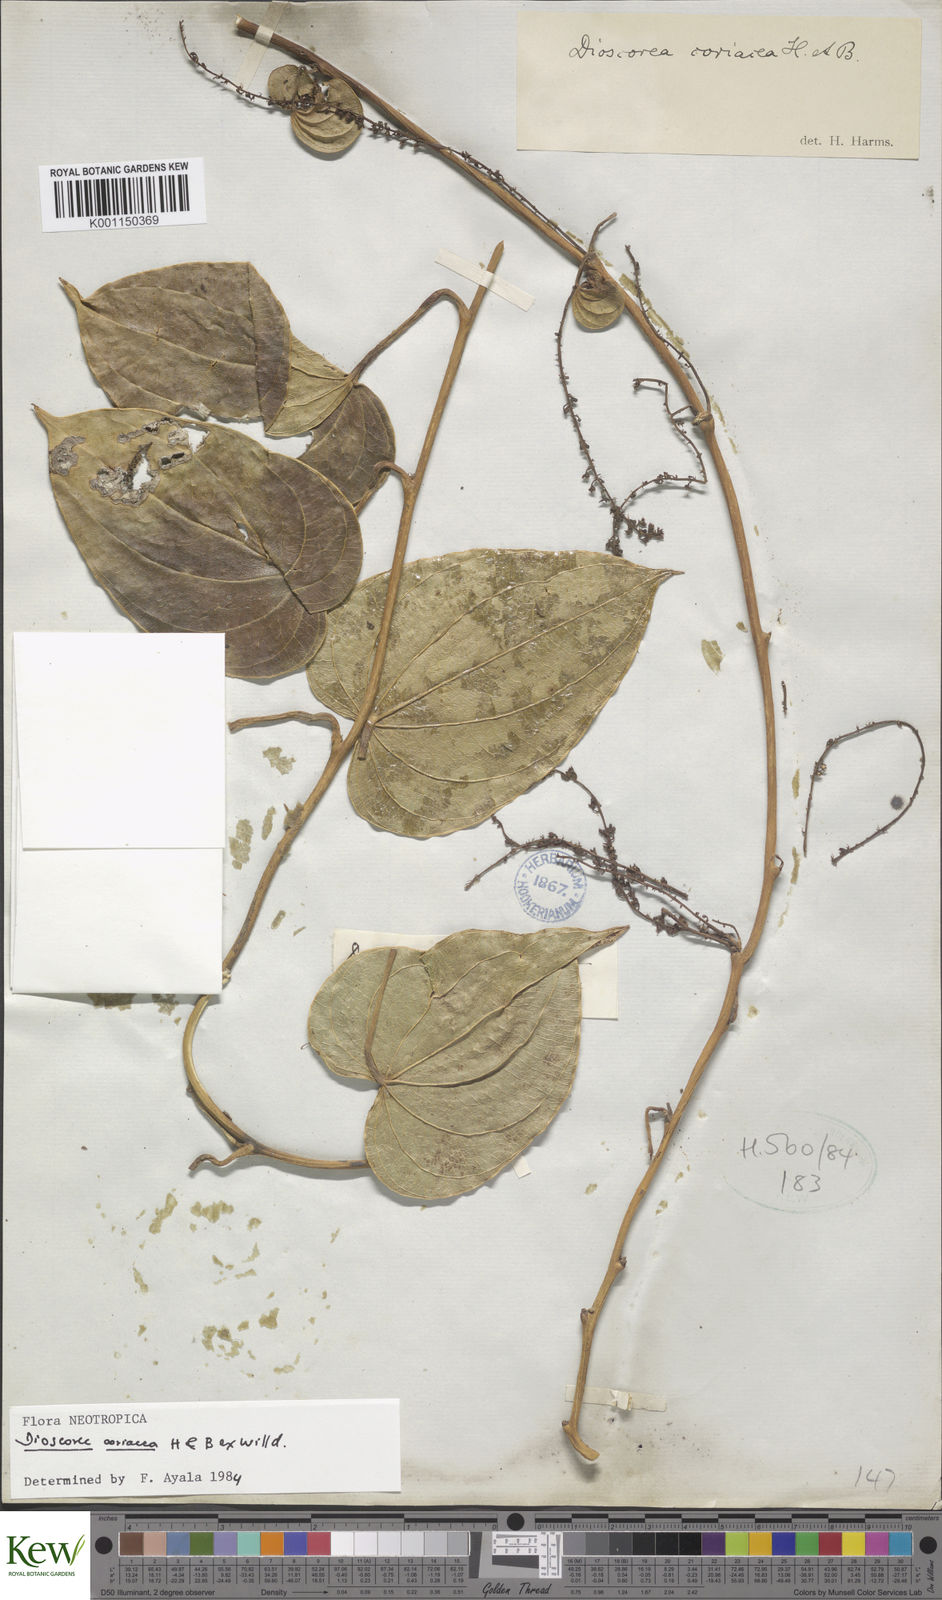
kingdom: Plantae
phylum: Tracheophyta
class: Liliopsida
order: Dioscoreales
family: Dioscoreaceae
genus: Dioscorea
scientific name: Dioscorea coriacea
